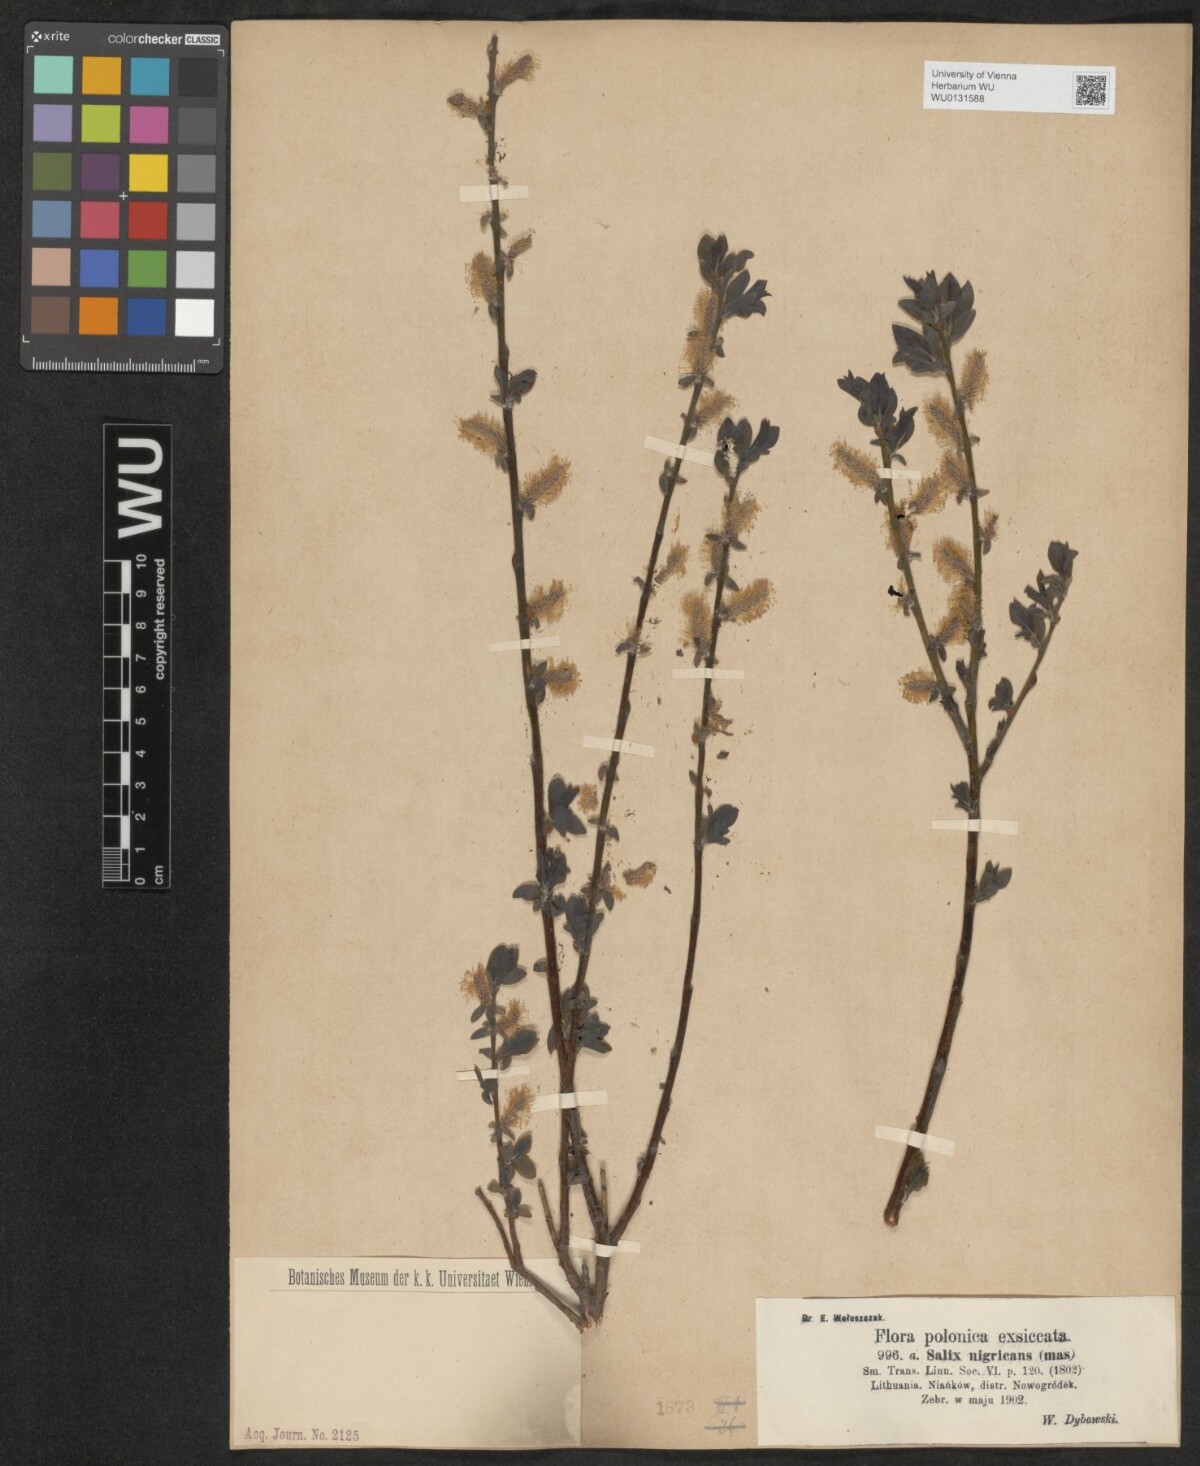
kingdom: Plantae
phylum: Tracheophyta
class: Magnoliopsida
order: Malpighiales
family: Salicaceae
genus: Salix
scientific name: Salix myrsinifolia
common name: Dark-leaved willow
